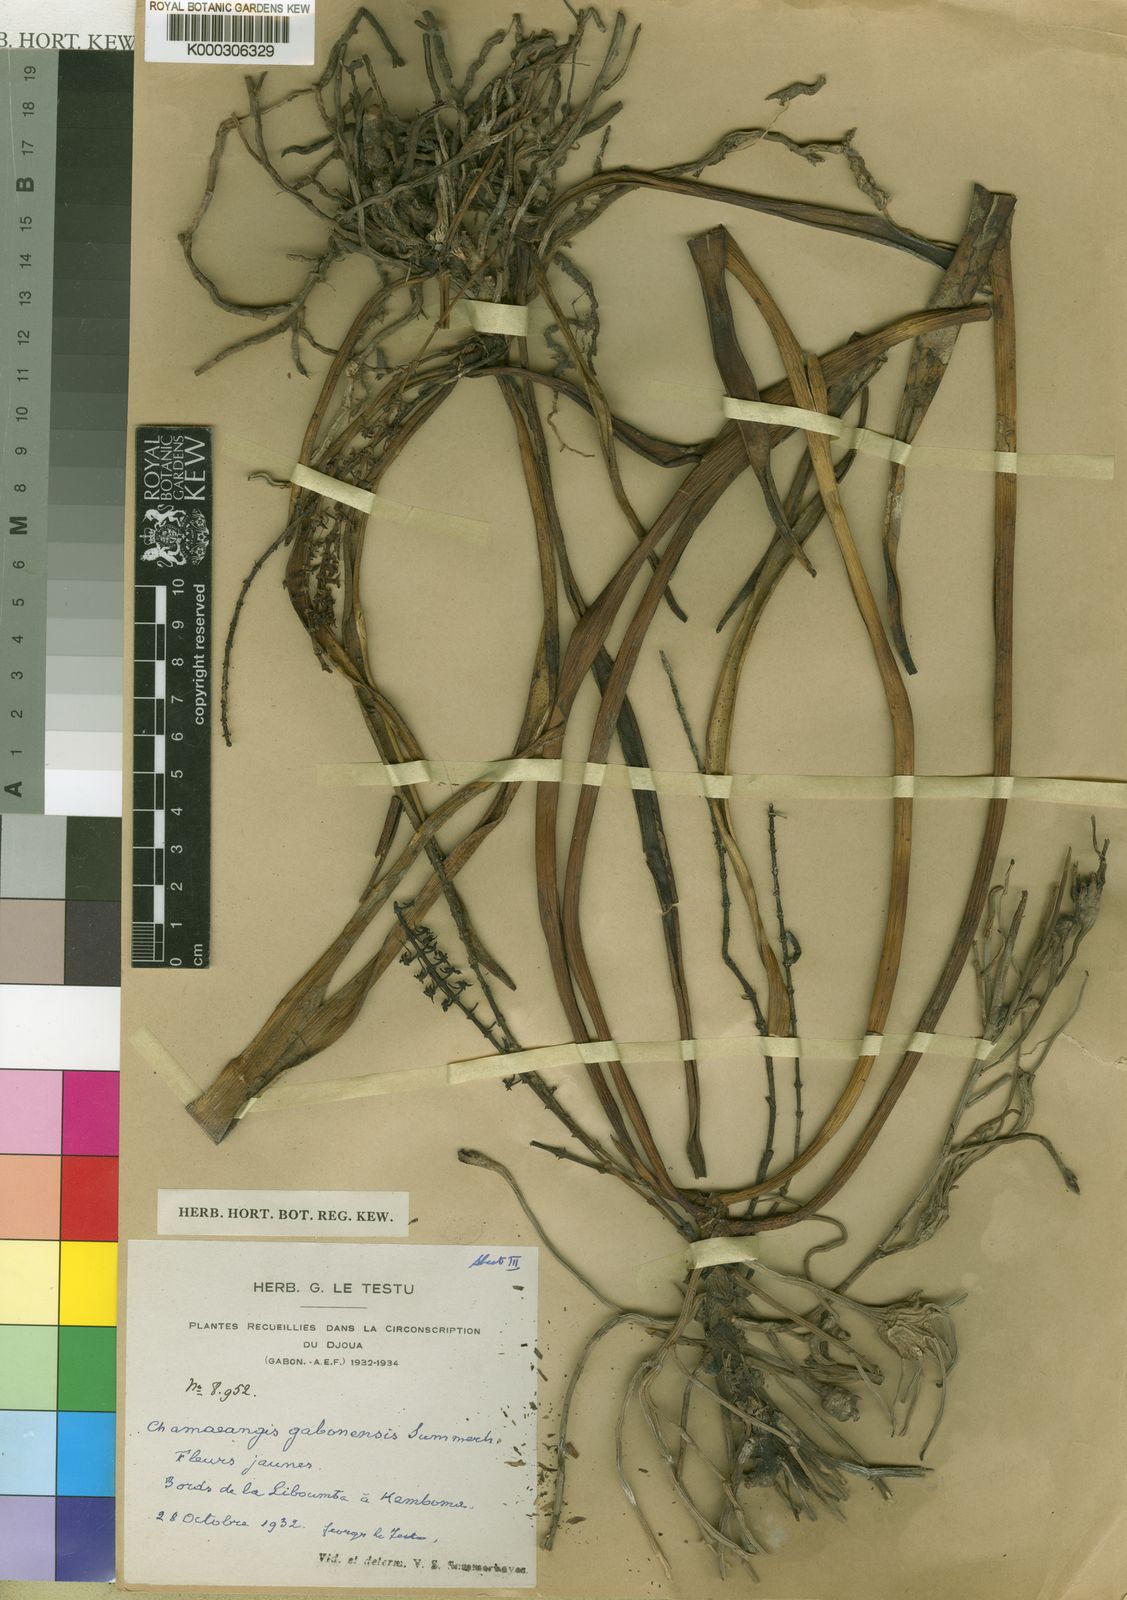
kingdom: Plantae
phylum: Tracheophyta
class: Liliopsida
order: Asparagales
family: Orchidaceae
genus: Diaphananthe
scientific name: Diaphananthe gabonensis
